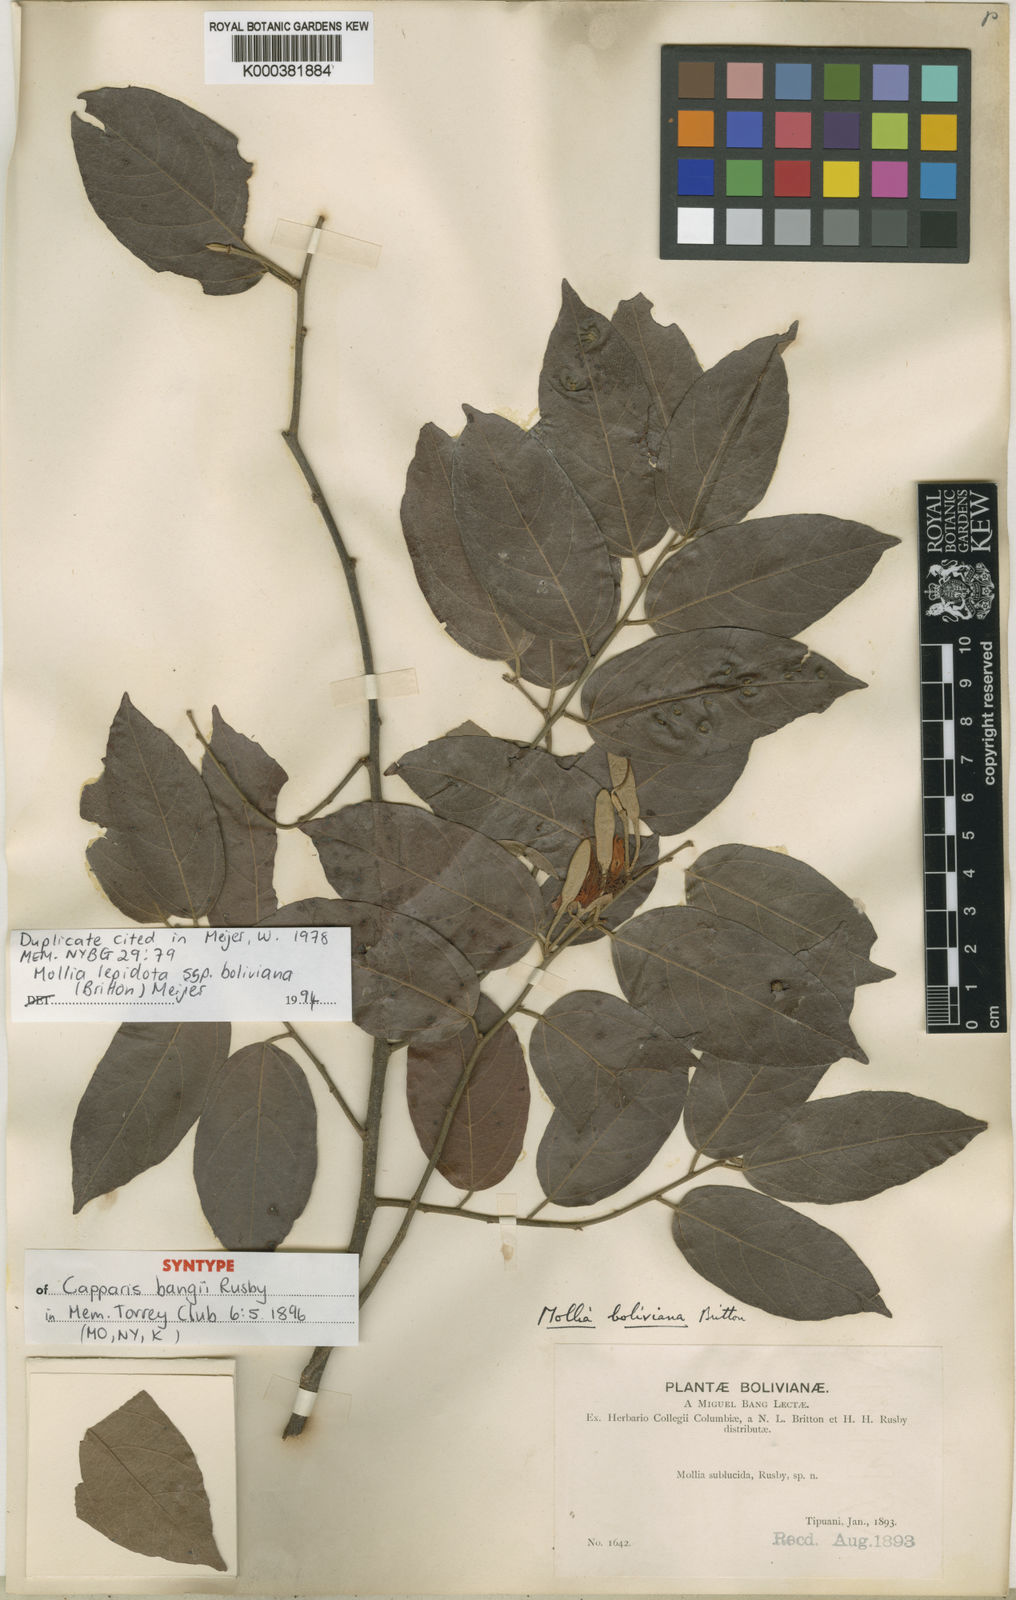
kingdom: Plantae
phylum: Tracheophyta
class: Magnoliopsida
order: Malvales
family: Malvaceae
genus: Mollia
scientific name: Mollia lepidota
